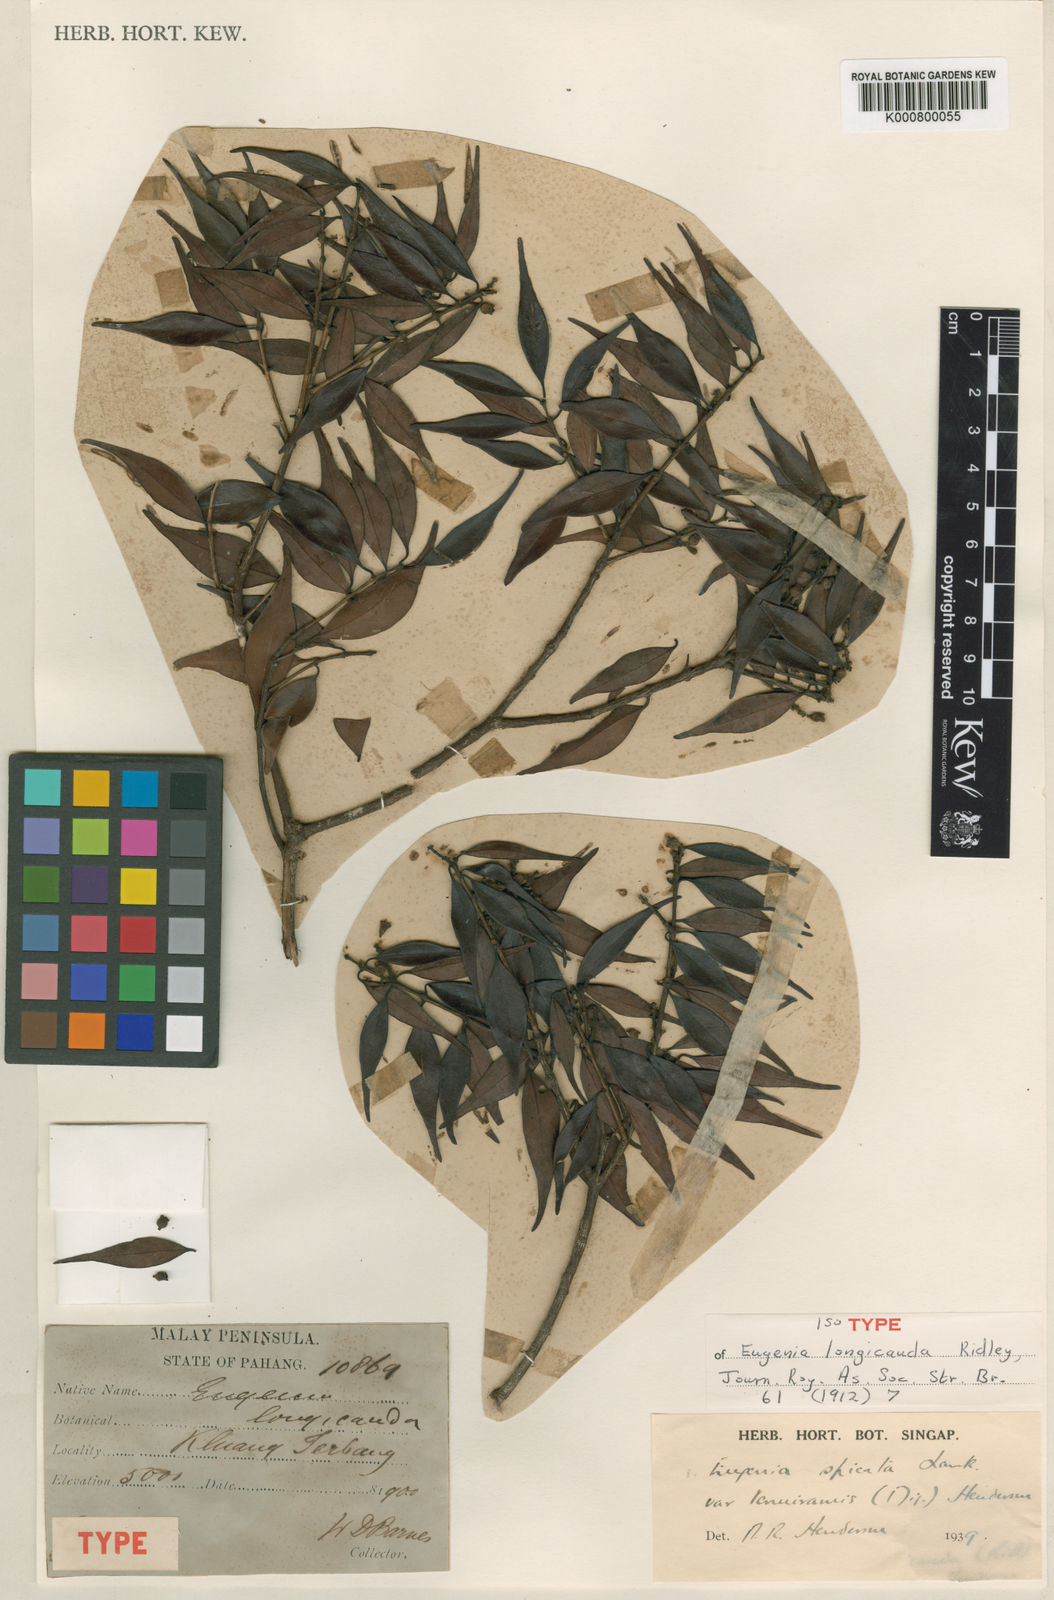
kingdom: Plantae
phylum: Tracheophyta
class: Magnoliopsida
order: Myrtales
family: Myrtaceae
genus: Syzygium
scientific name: Syzygium zeylanicum
